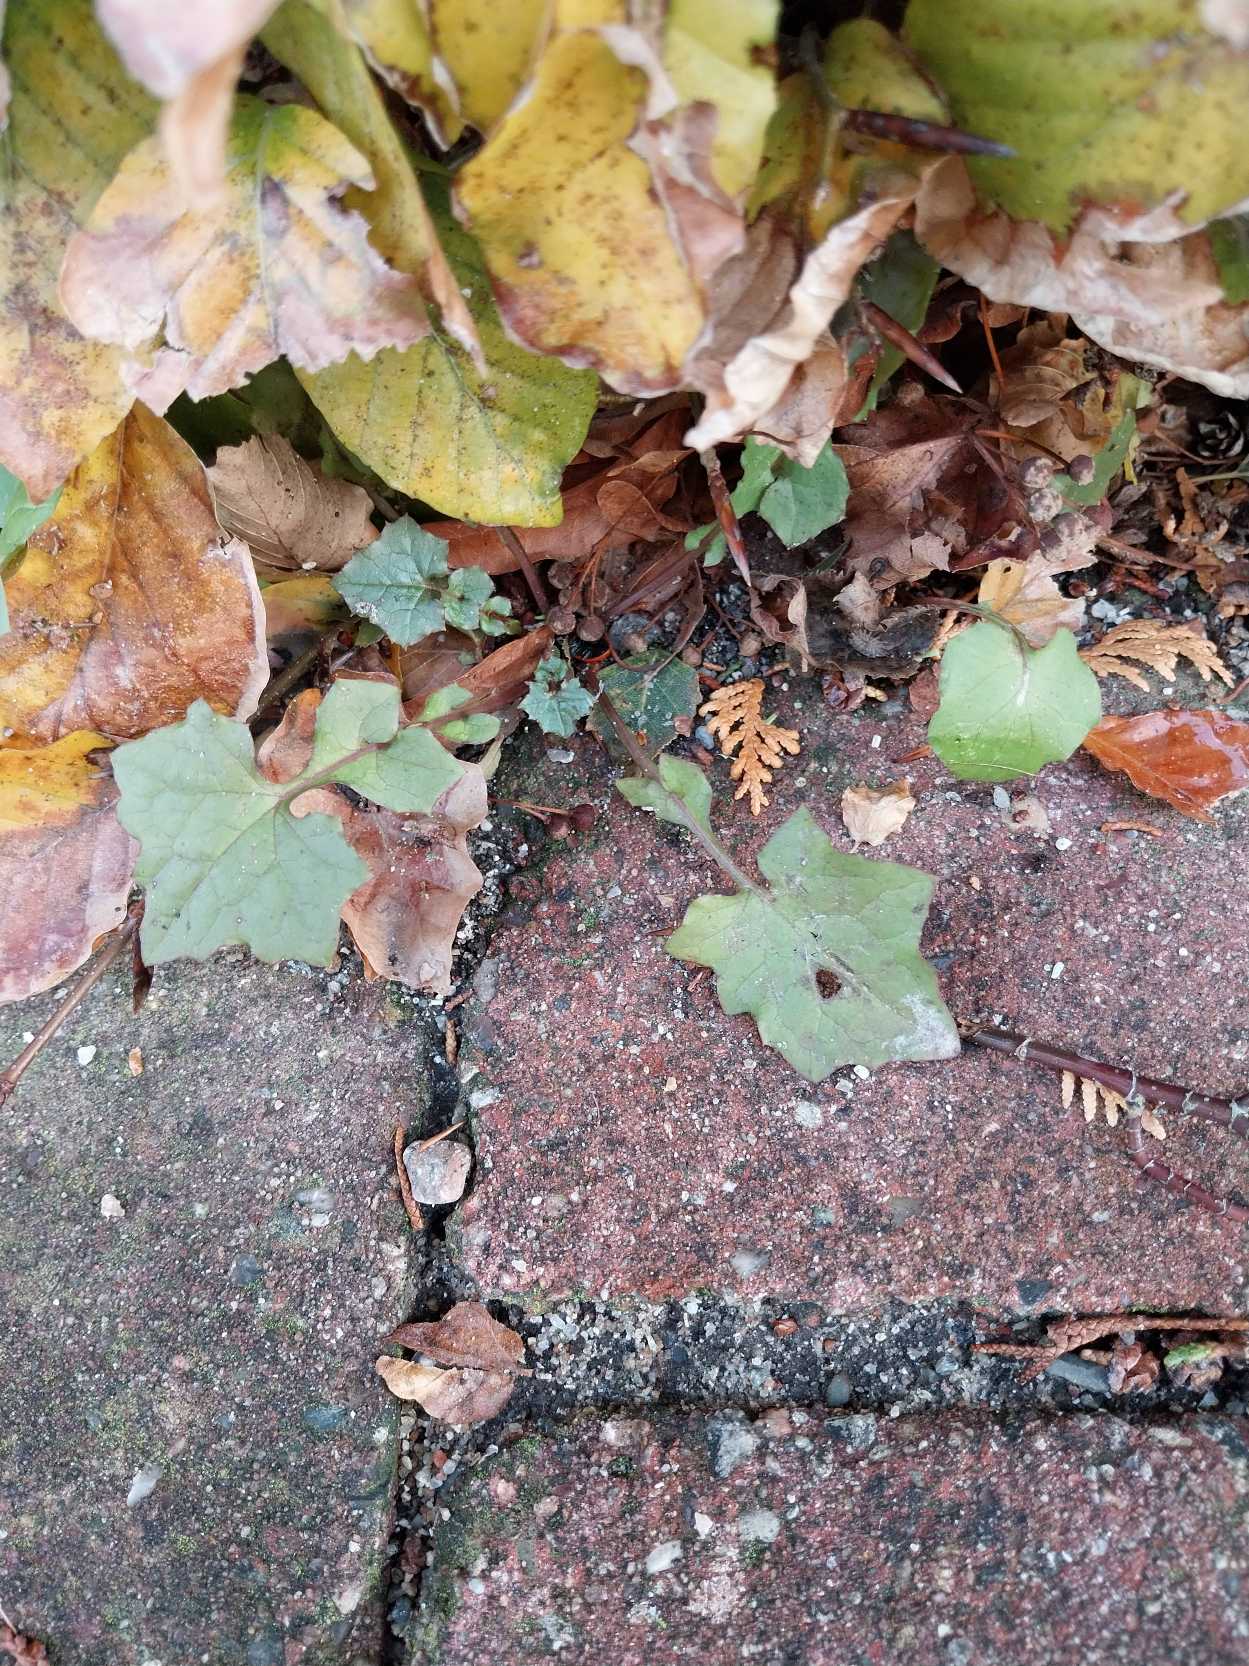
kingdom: Plantae
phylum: Tracheophyta
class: Magnoliopsida
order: Asterales
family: Asteraceae
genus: Mycelis
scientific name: Mycelis muralis
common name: Skov-salat
